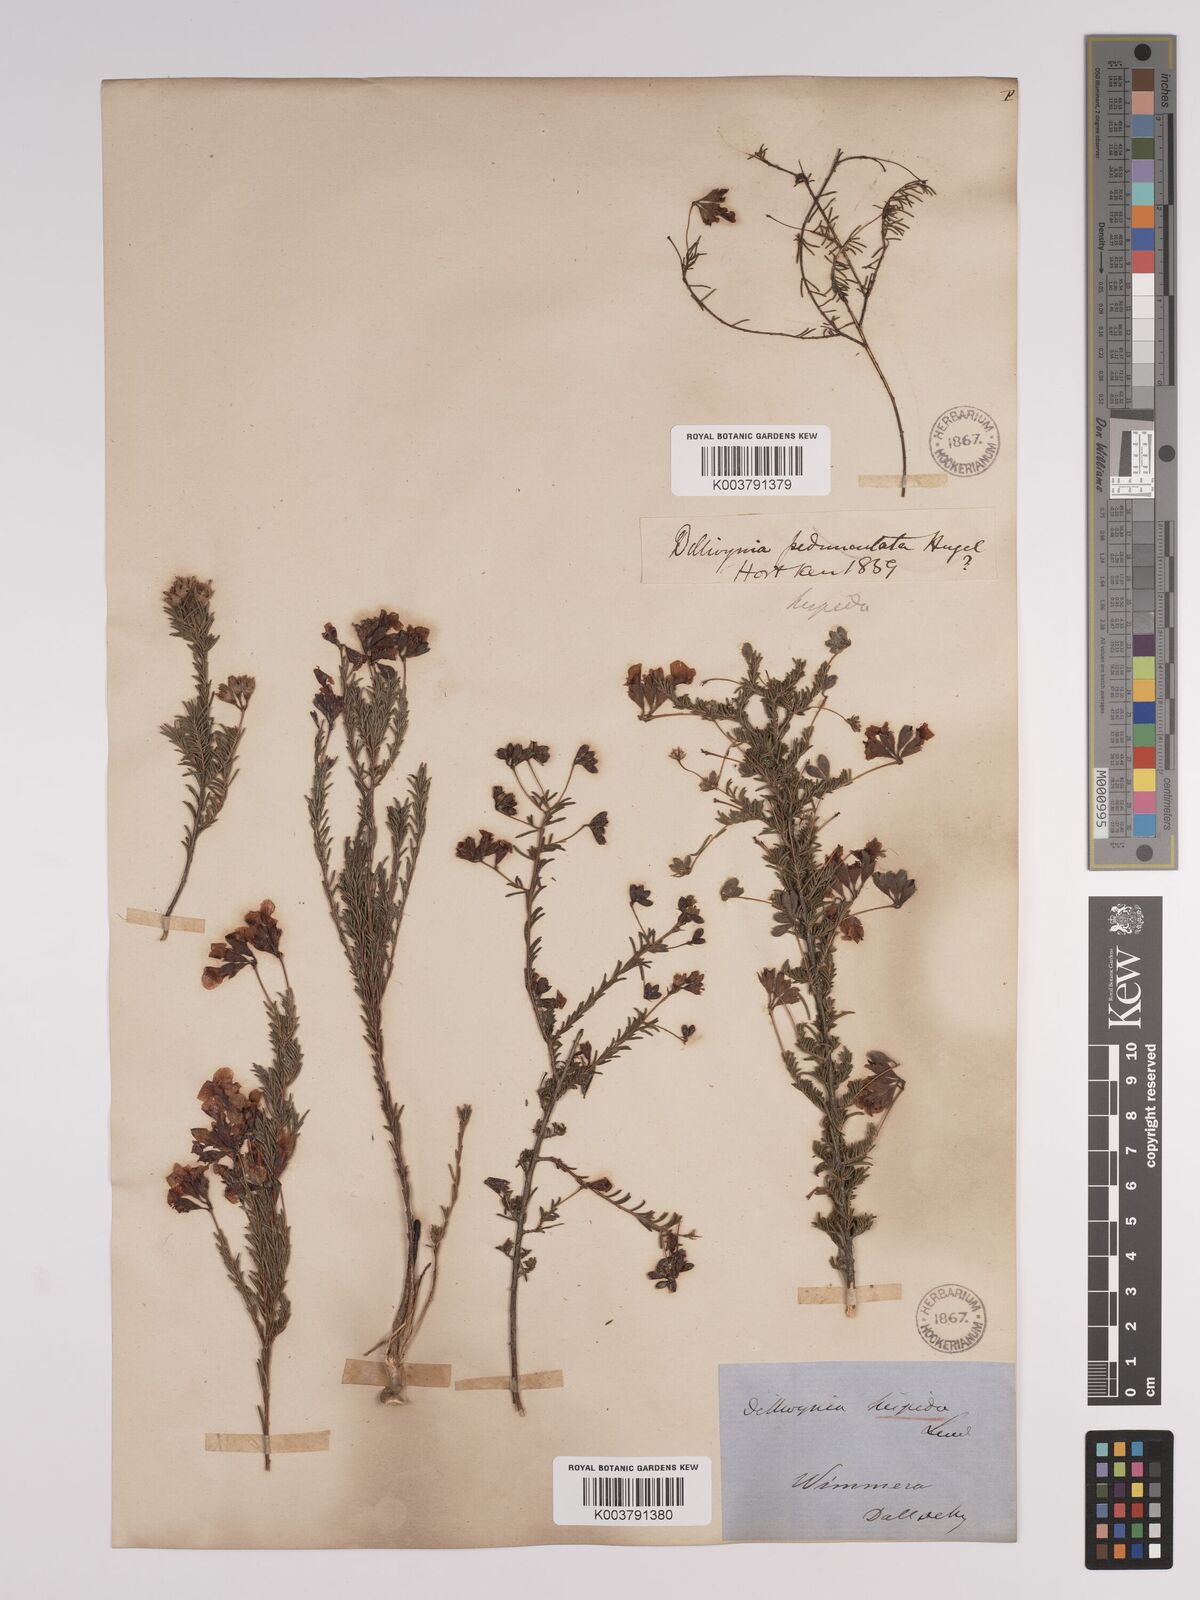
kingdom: Plantae
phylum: Tracheophyta
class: Magnoliopsida
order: Fabales
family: Fabaceae
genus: Dillwynia
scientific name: Dillwynia hispida
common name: Red parrot-pea
